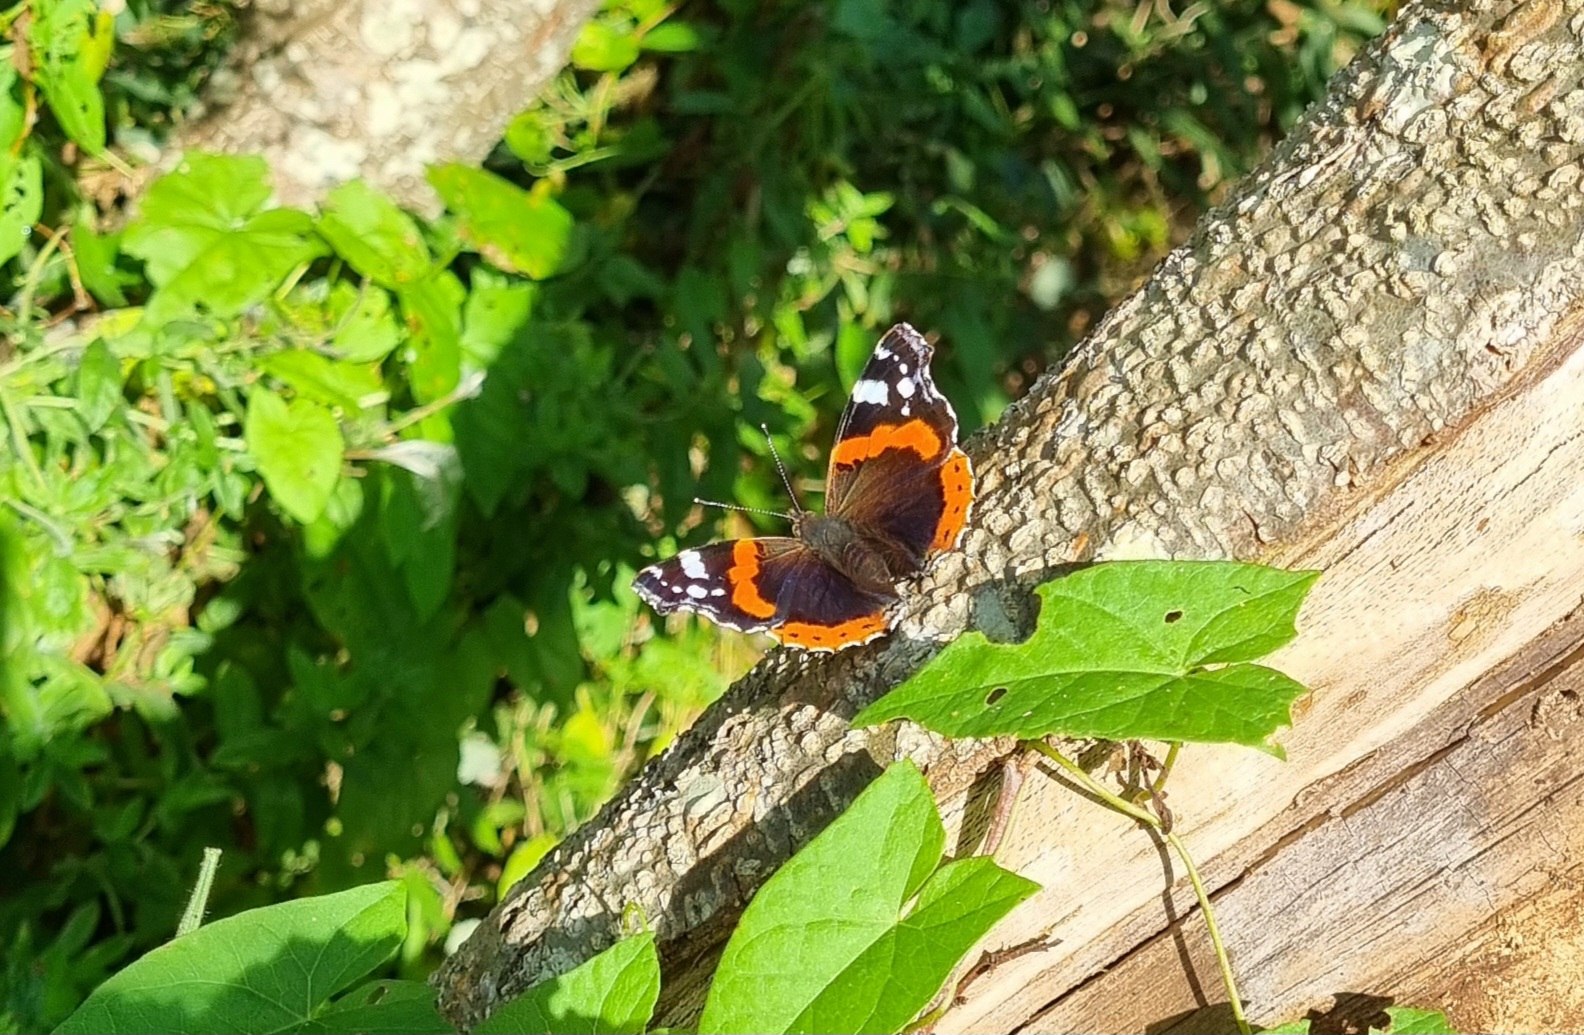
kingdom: Animalia
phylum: Arthropoda
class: Insecta
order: Lepidoptera
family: Nymphalidae
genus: Vanessa
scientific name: Vanessa atalanta
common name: Admiral
